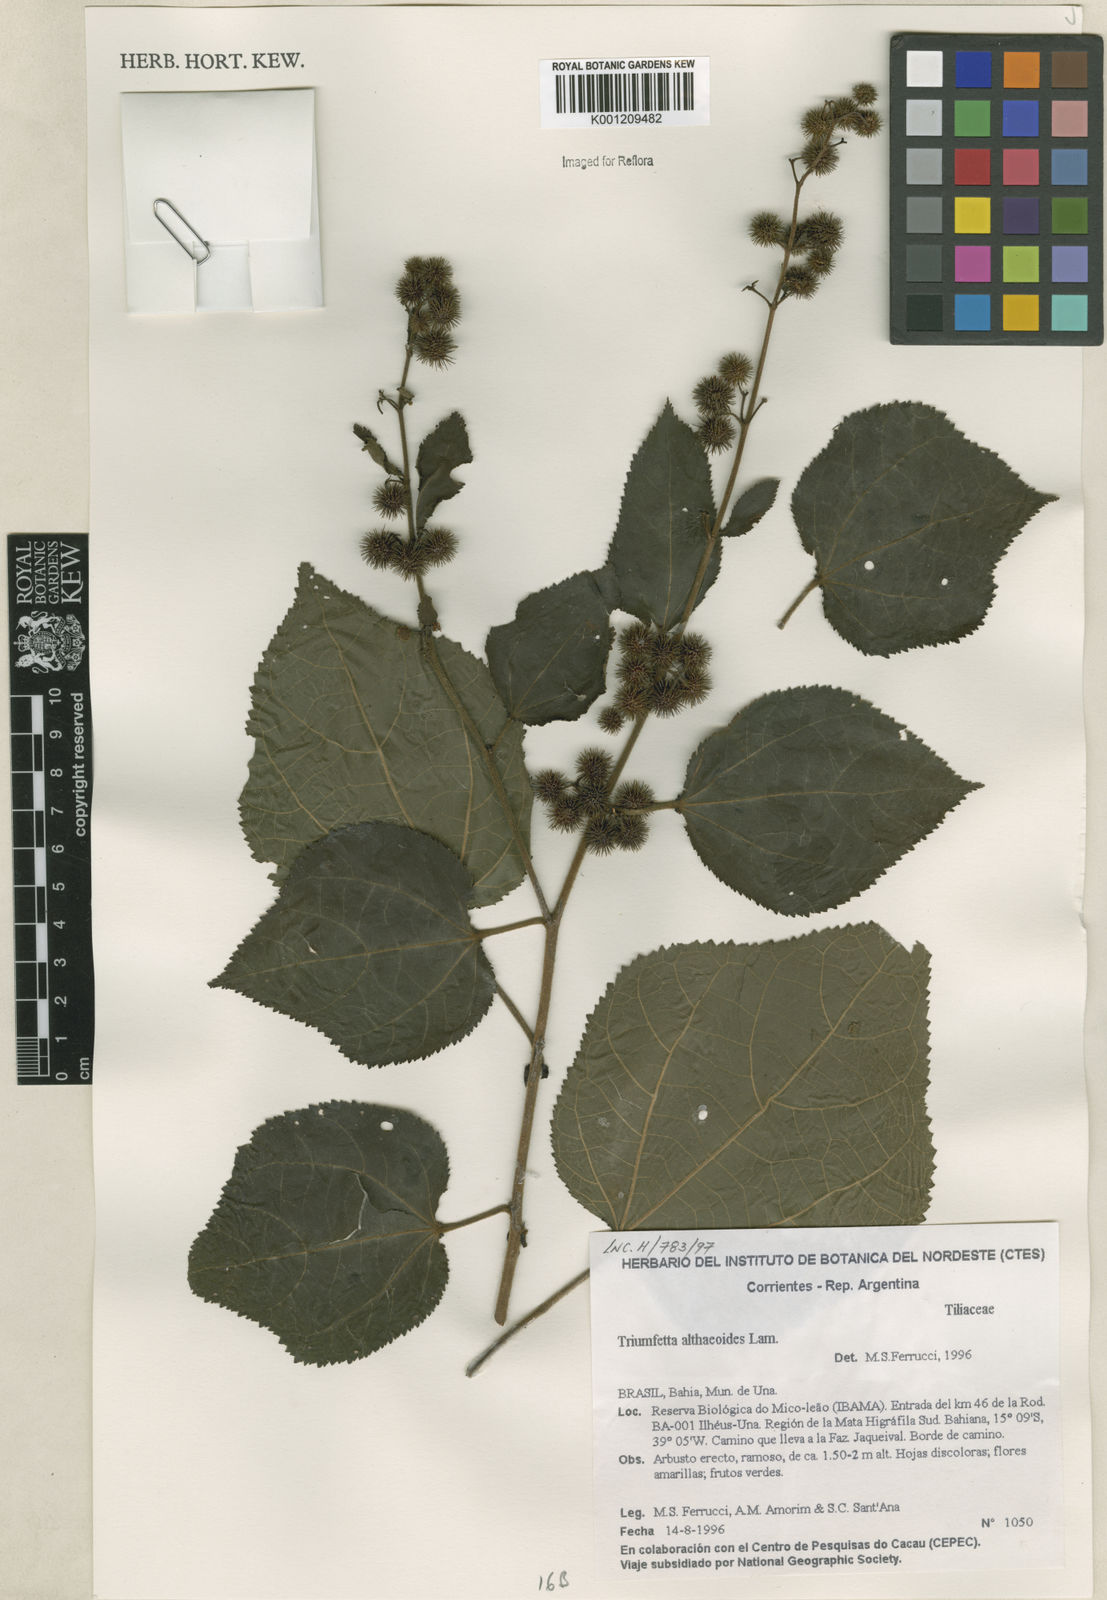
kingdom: Plantae
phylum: Tracheophyta
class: Magnoliopsida
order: Malvales
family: Malvaceae
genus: Triumfetta
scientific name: Triumfetta althaeoides
